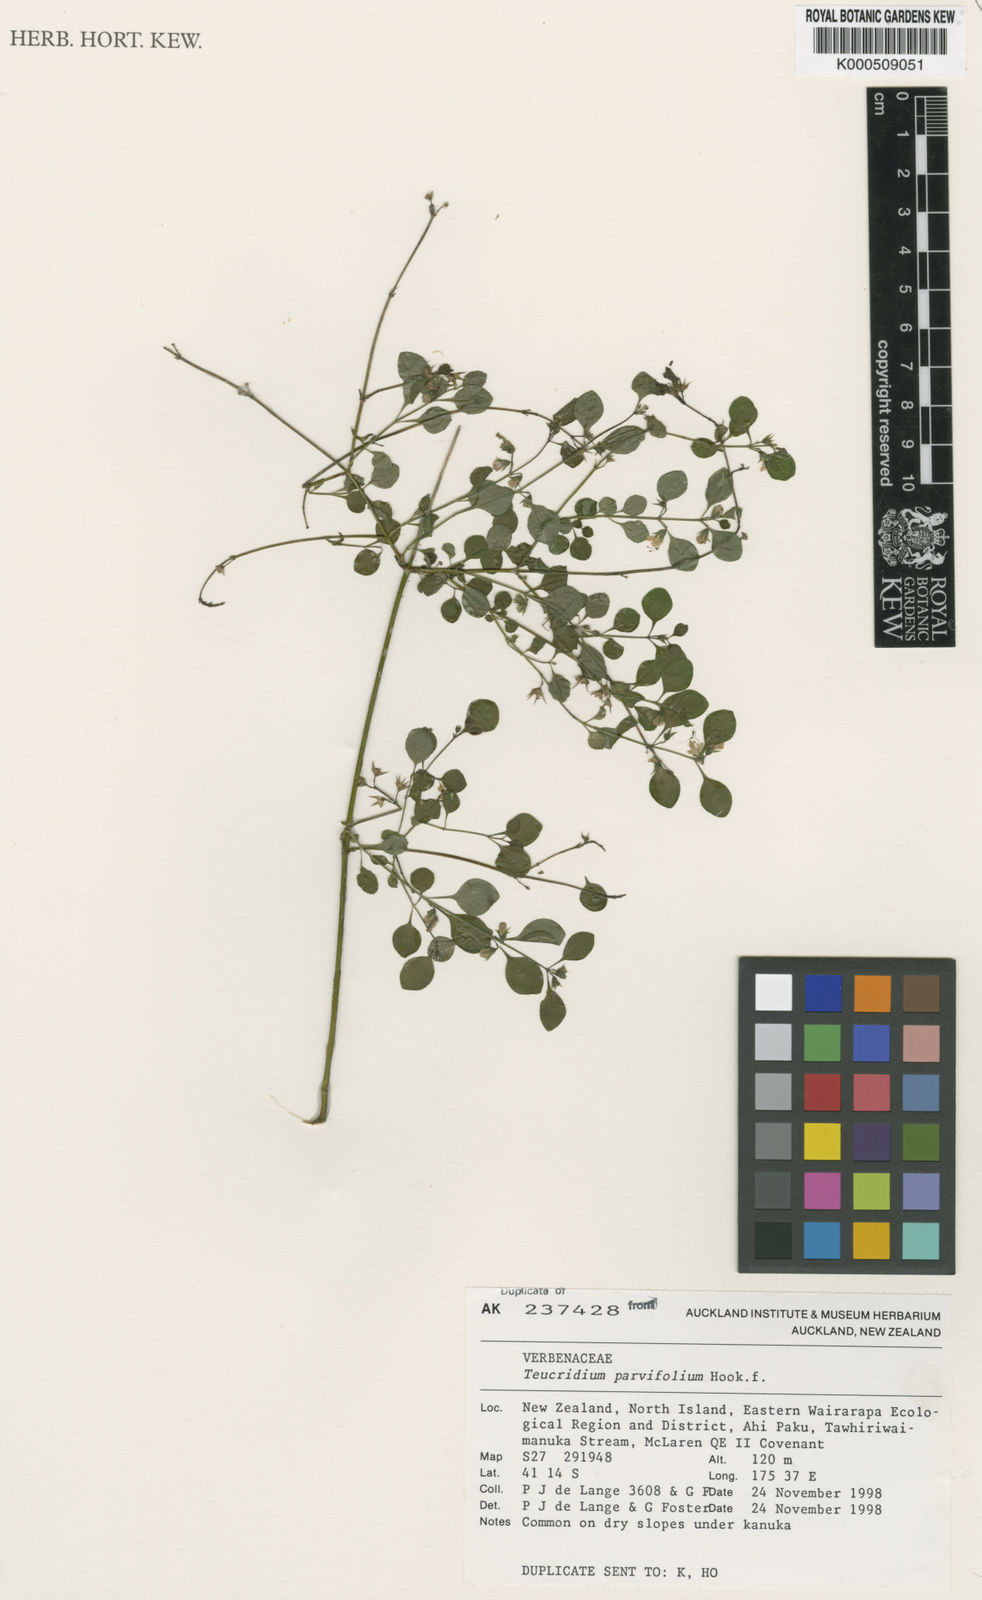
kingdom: Plantae
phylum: Tracheophyta
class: Magnoliopsida
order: Lamiales
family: Lamiaceae
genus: Teucrium
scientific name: Teucrium parvifolium
